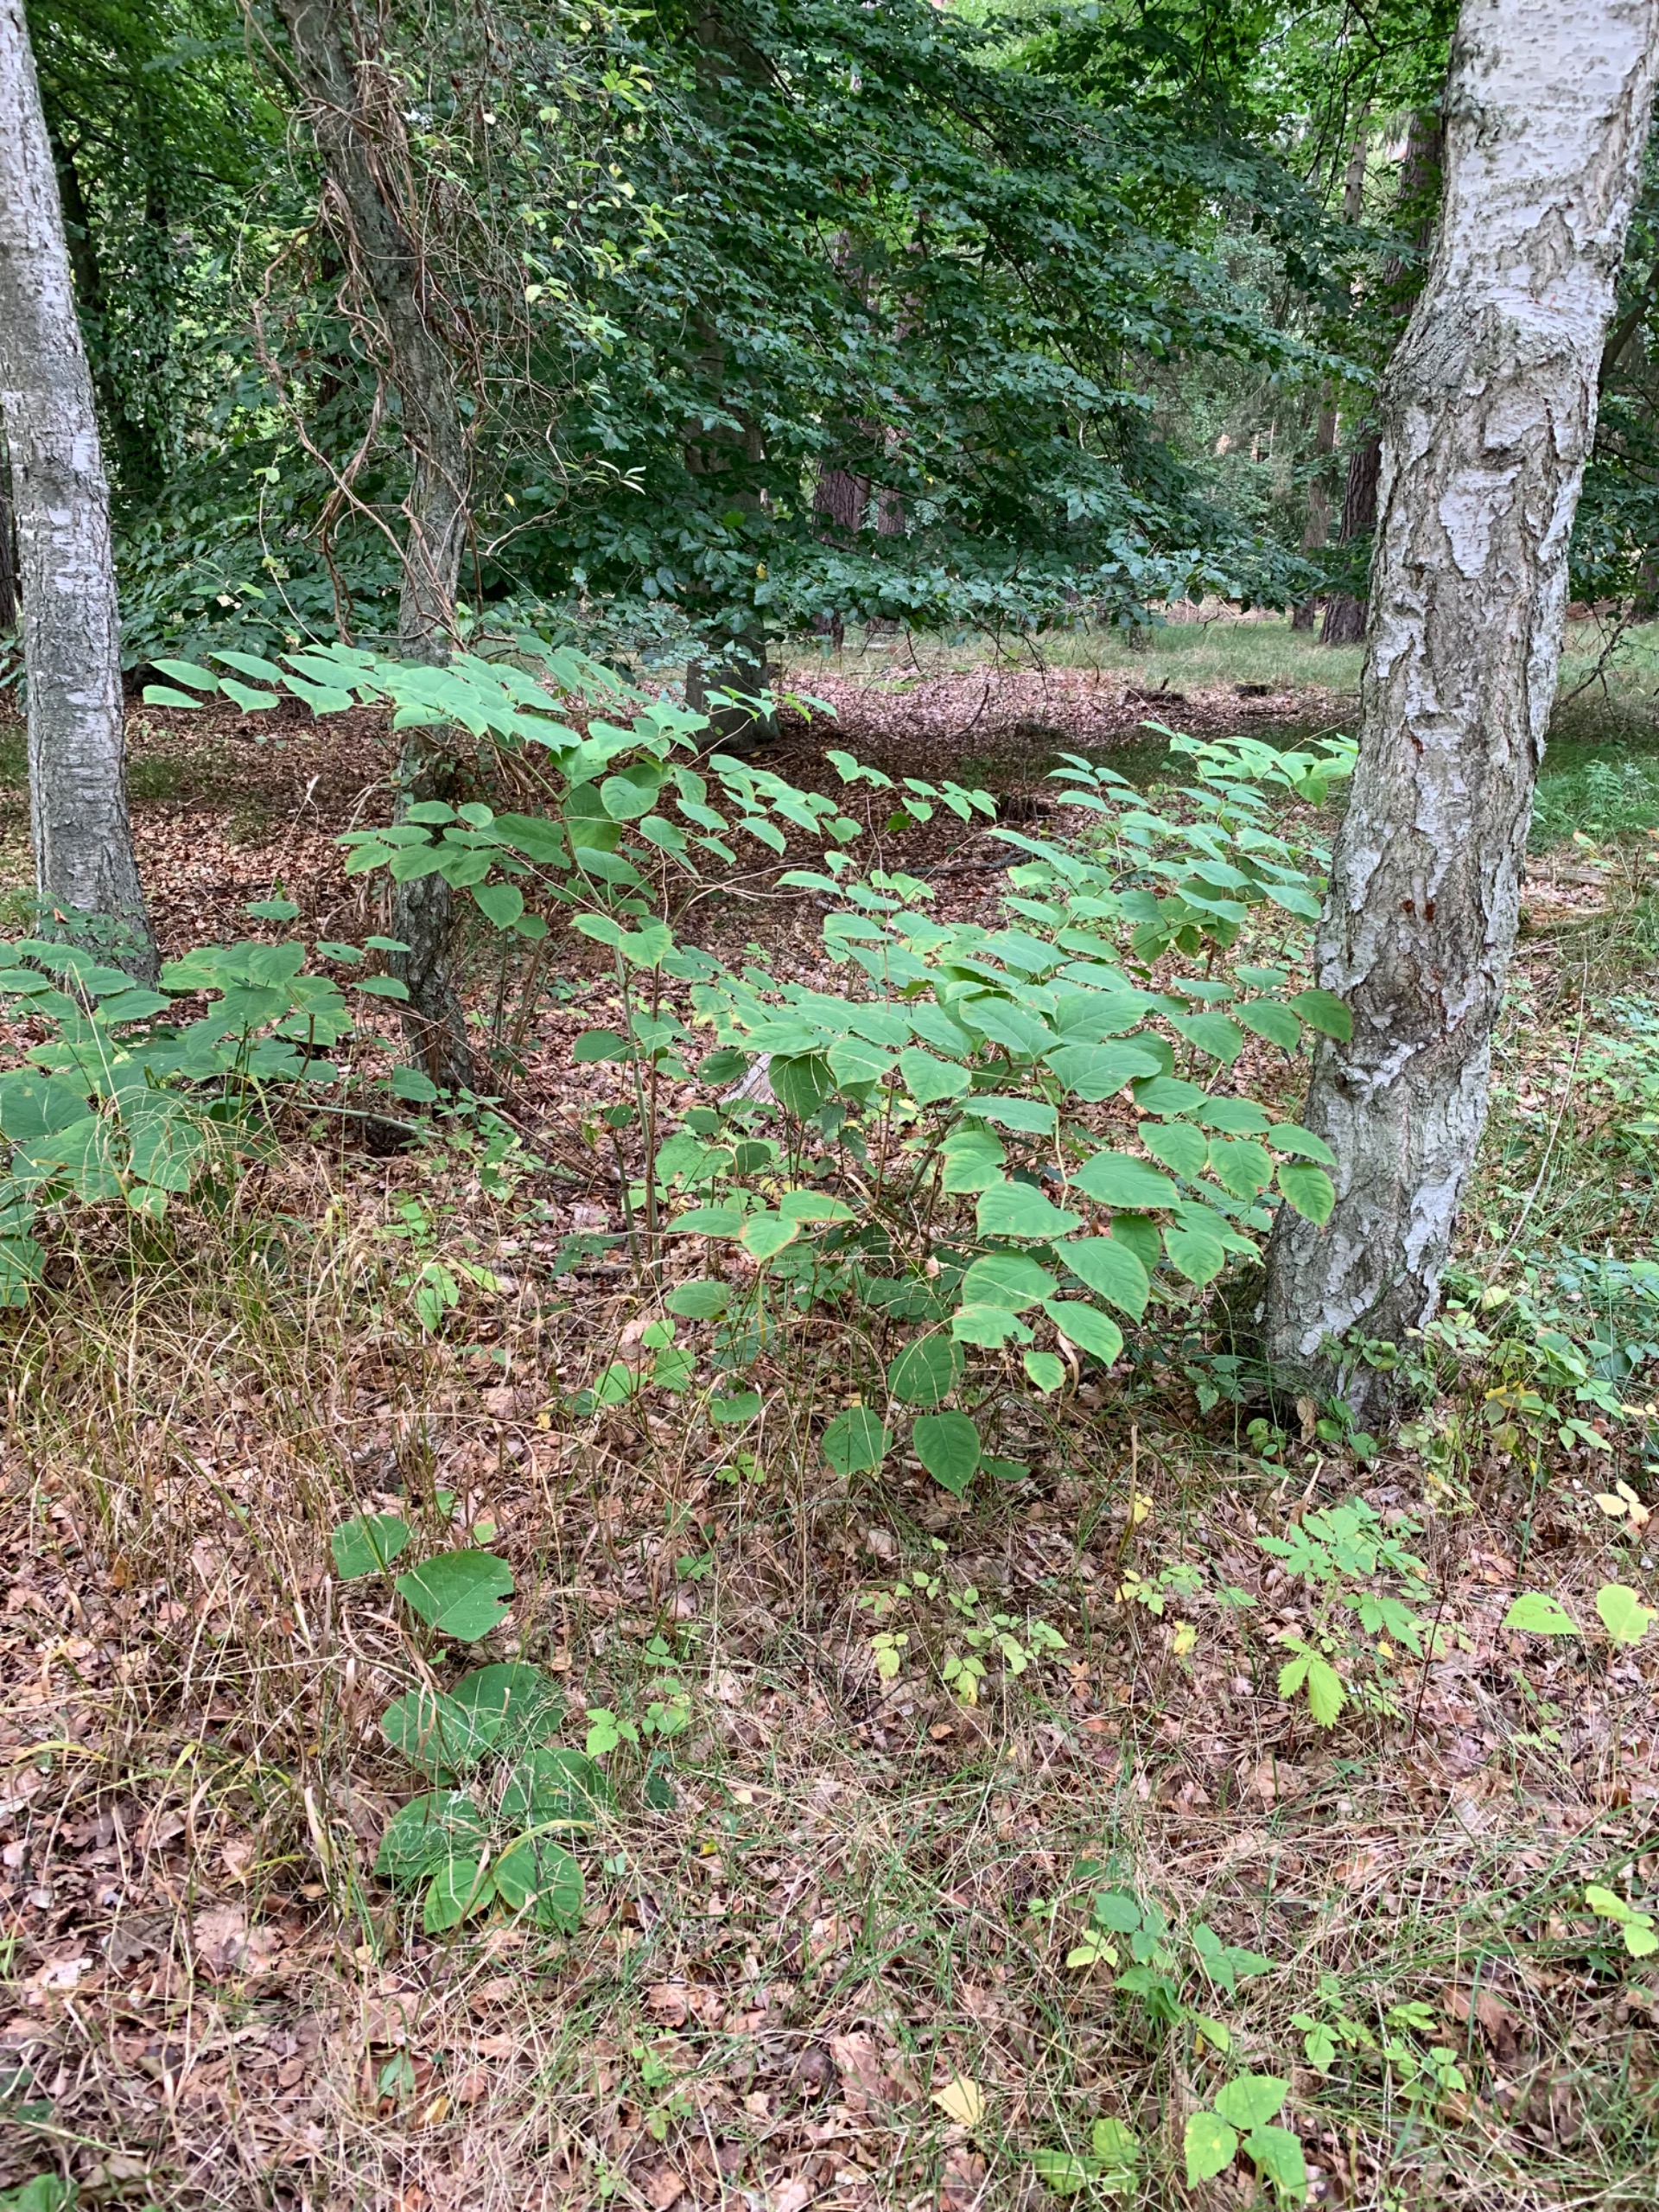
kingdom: Plantae
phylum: Tracheophyta
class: Magnoliopsida
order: Caryophyllales
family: Polygonaceae
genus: Reynoutria
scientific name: Reynoutria japonica
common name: Japan-pileurt
